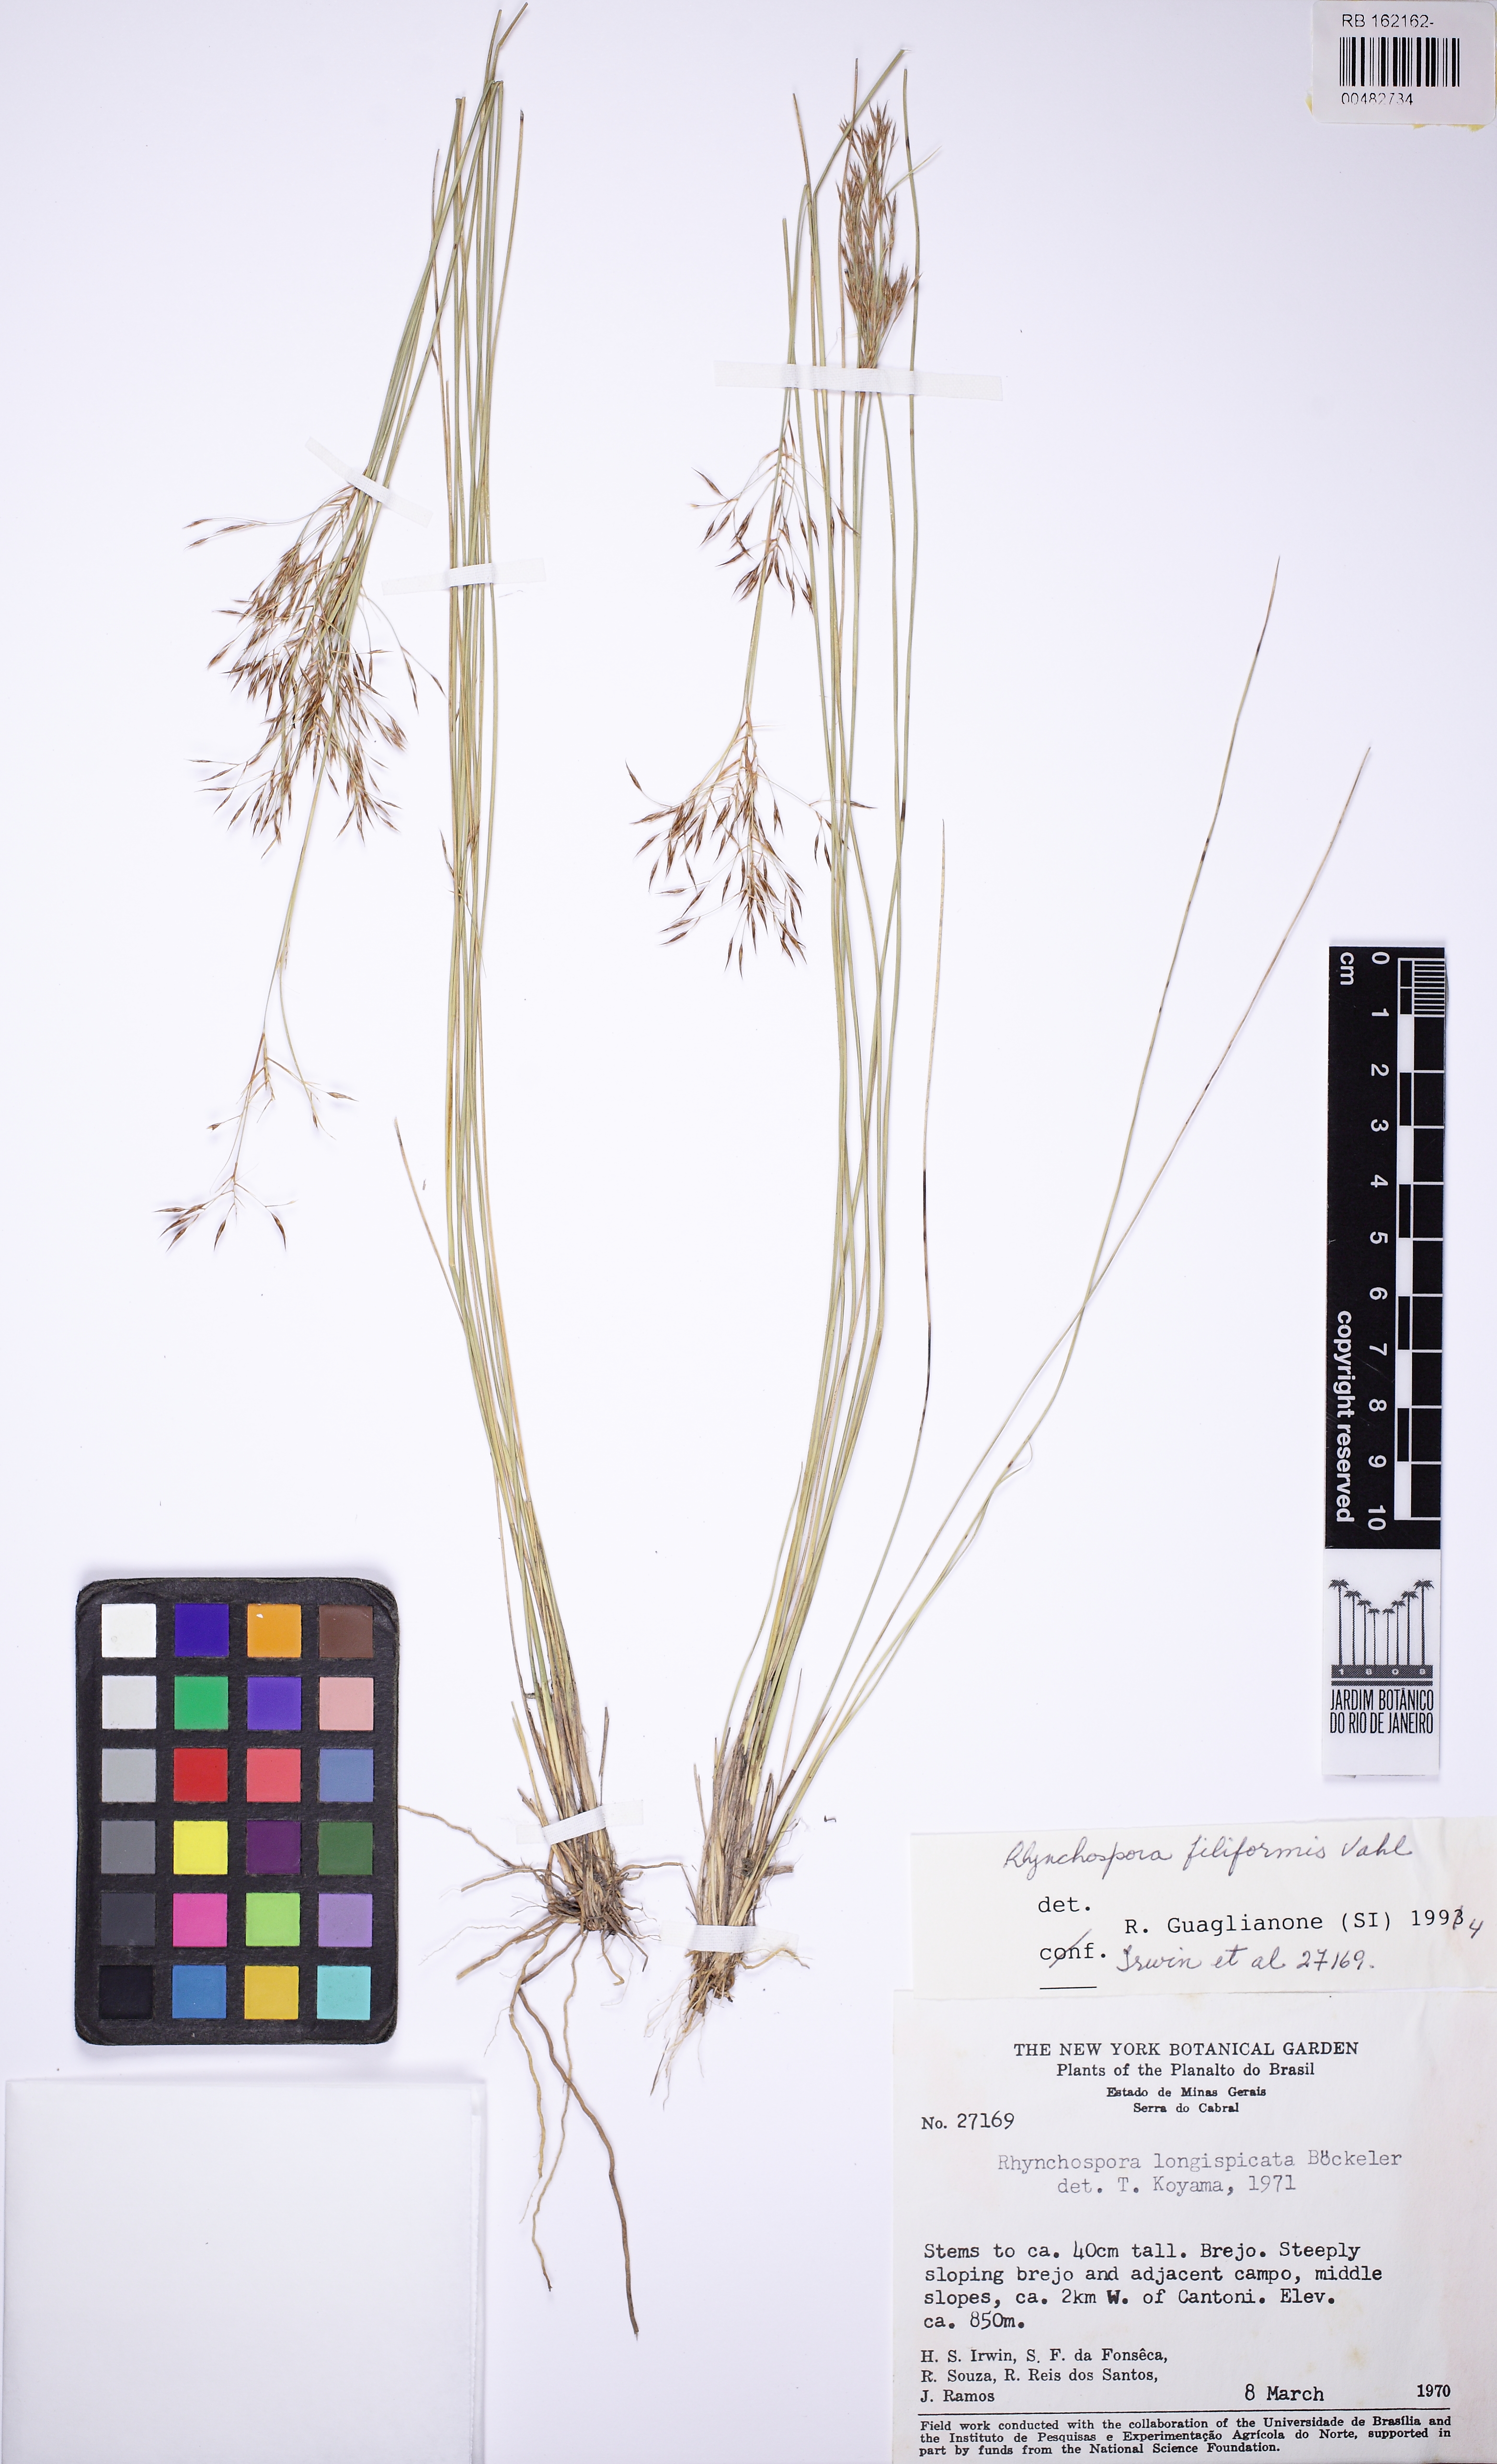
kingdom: Plantae
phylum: Tracheophyta
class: Liliopsida
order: Poales
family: Cyperaceae
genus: Rhynchospora
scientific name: Rhynchospora emaciata
